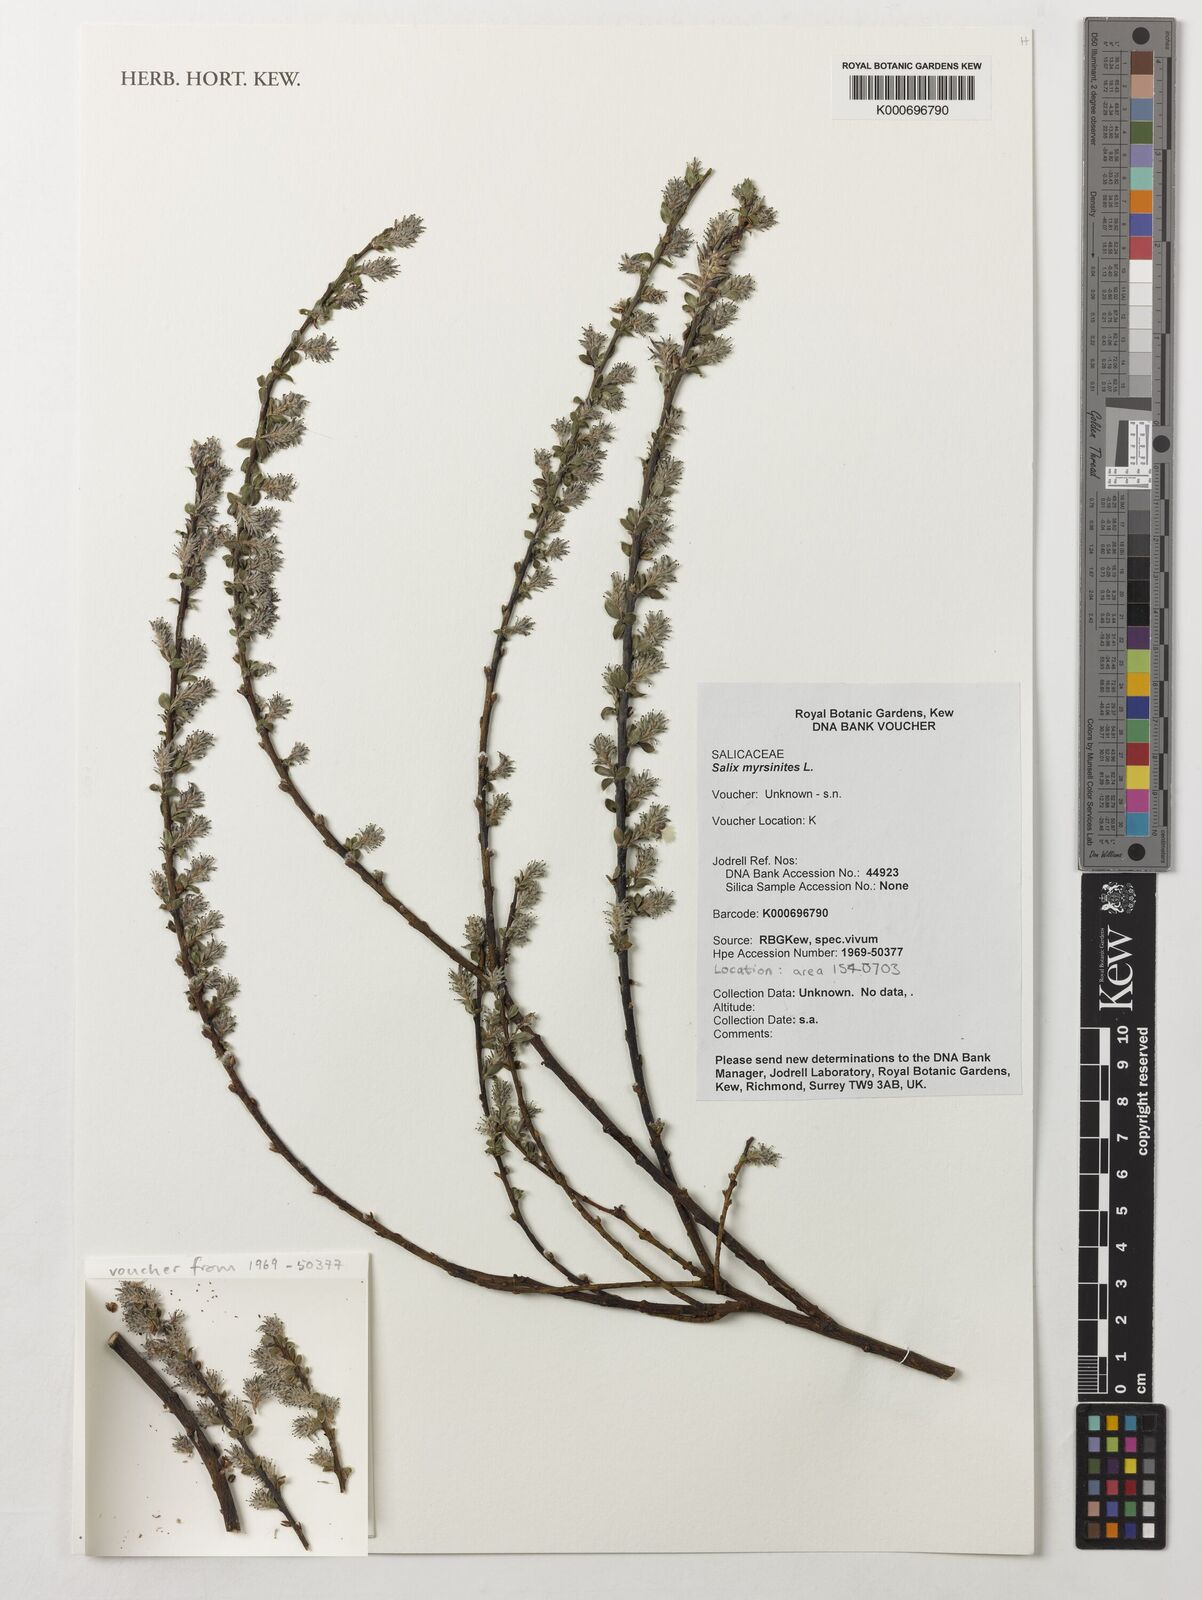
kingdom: Plantae
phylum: Tracheophyta
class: Magnoliopsida
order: Malpighiales
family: Salicaceae
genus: Salix
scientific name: Salix myrsinites
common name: Myrtle willow
